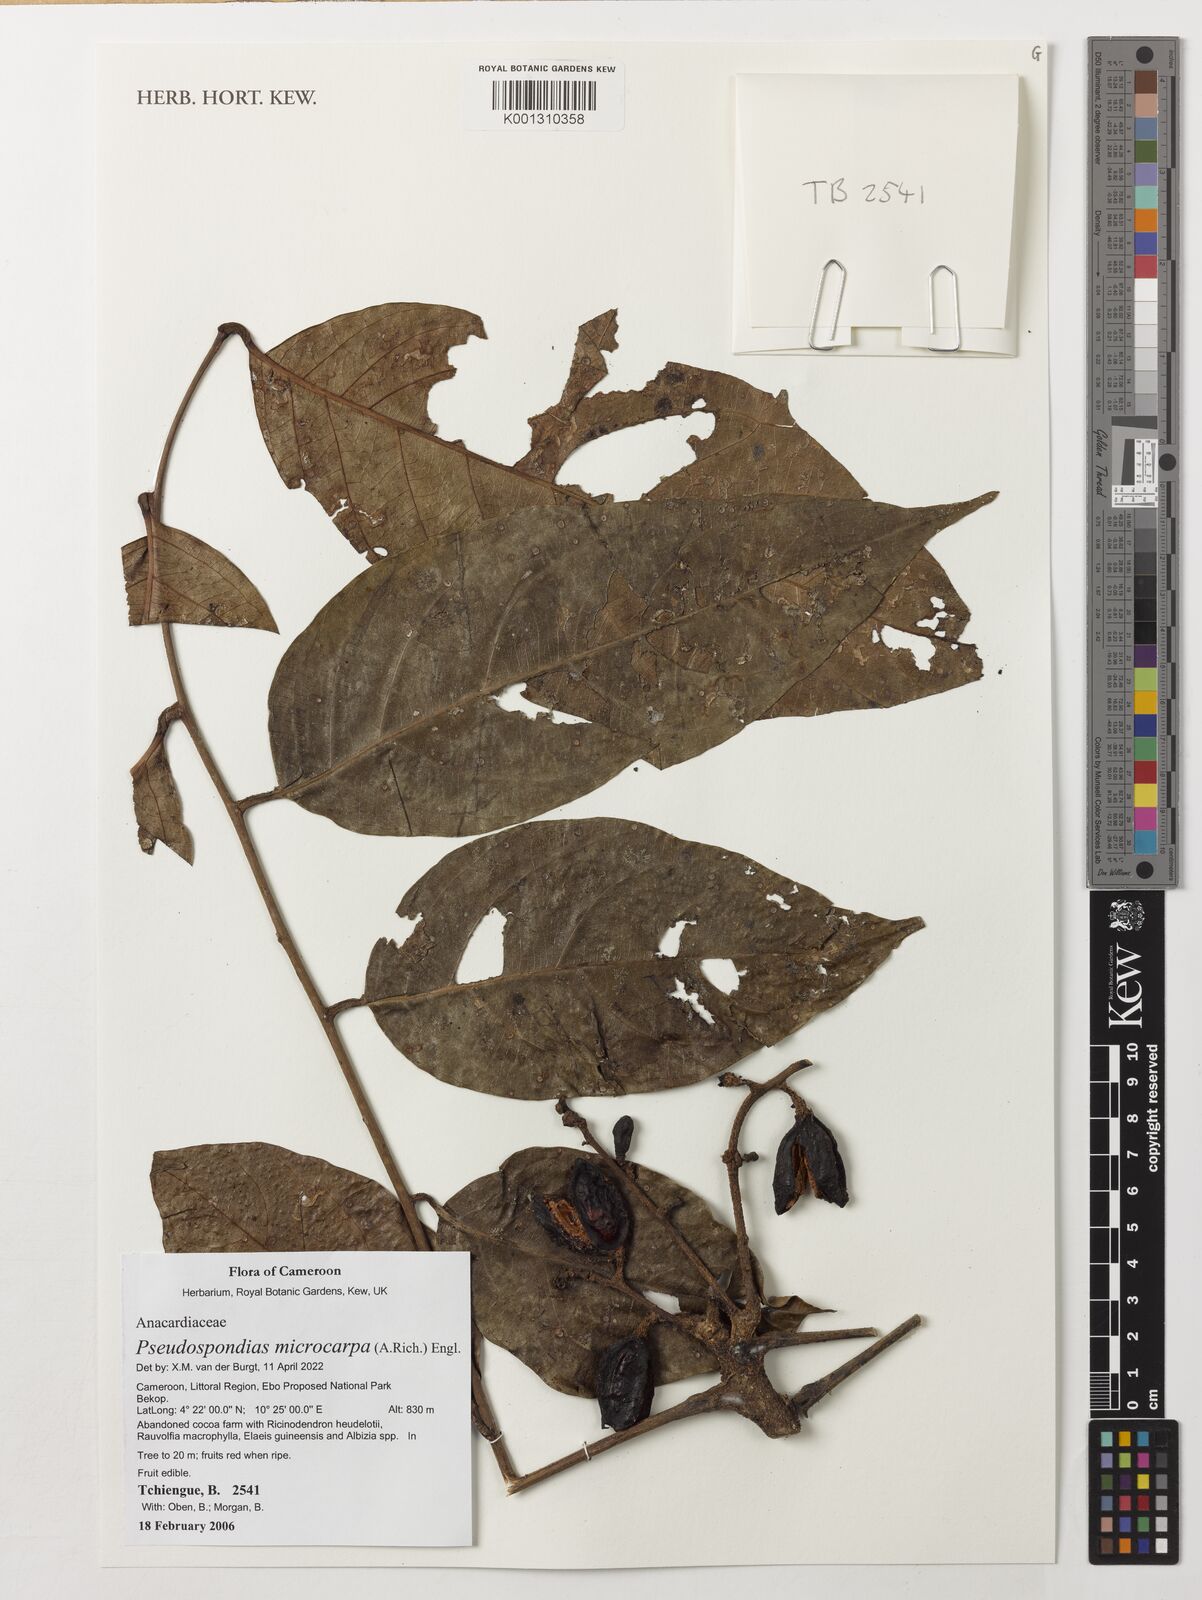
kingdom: Plantae
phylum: Tracheophyta
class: Magnoliopsida
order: Sapindales
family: Anacardiaceae
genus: Pseudospondias
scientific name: Pseudospondias microcarpa
